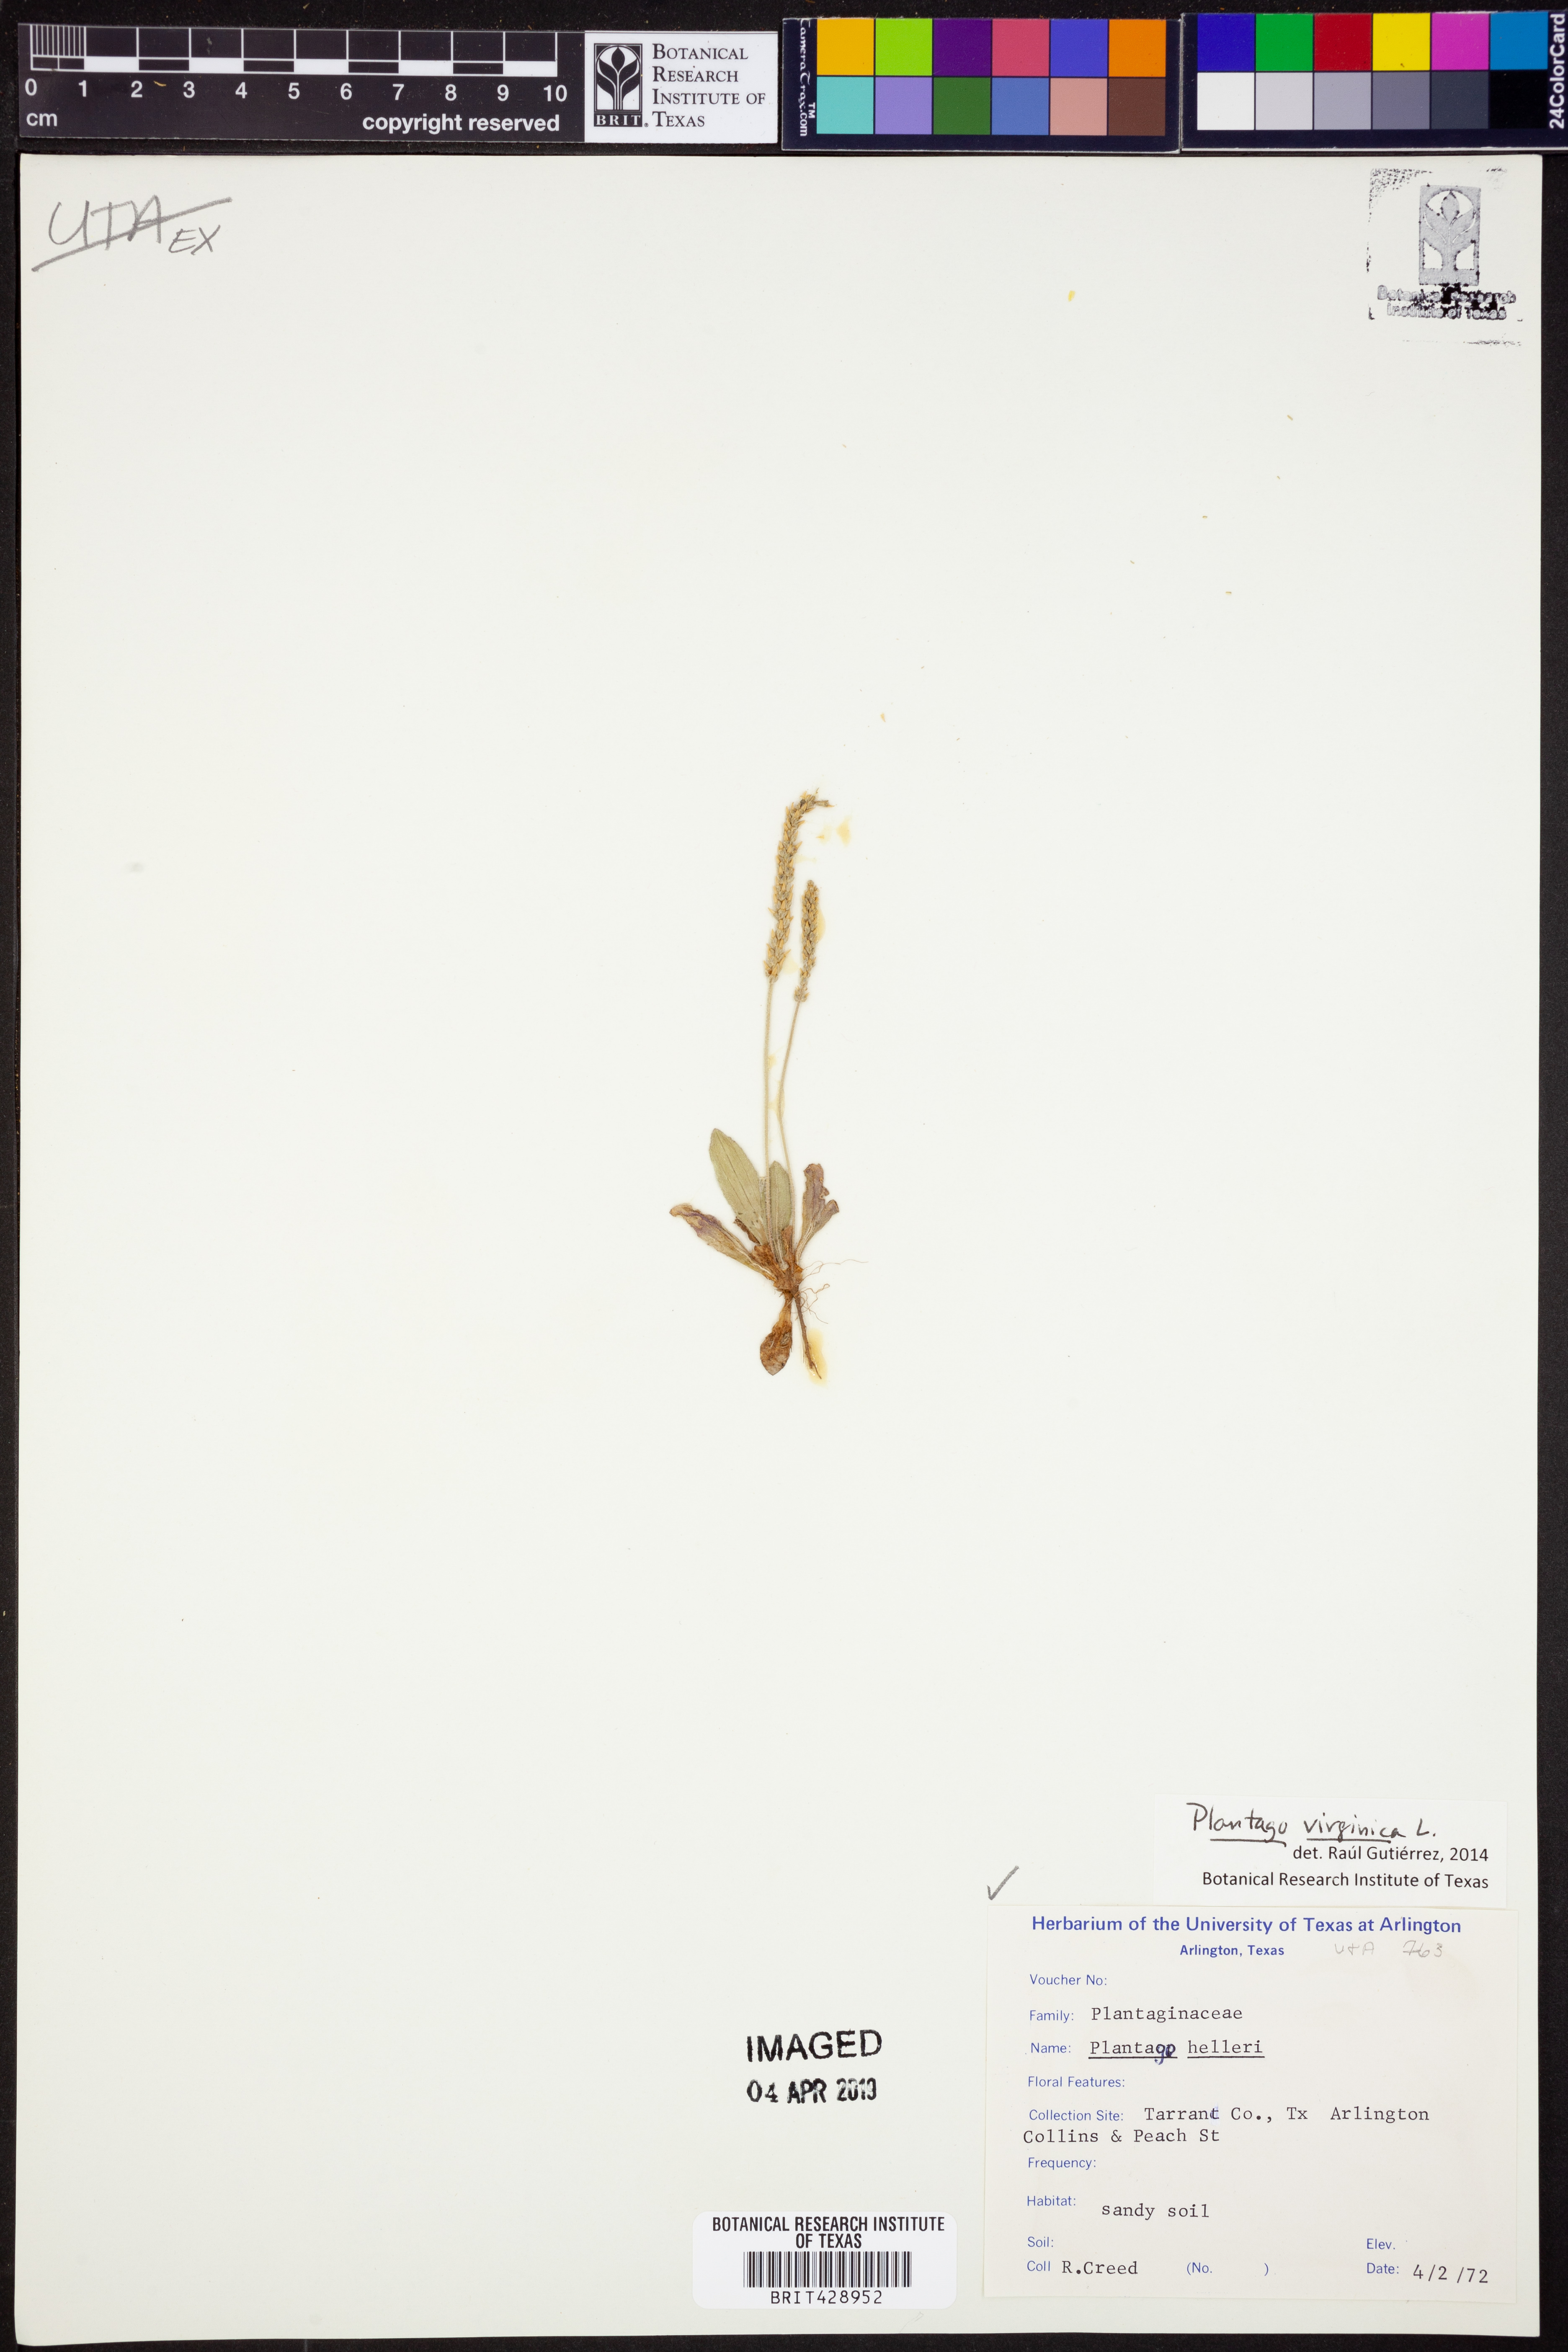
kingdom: Plantae
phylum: Tracheophyta
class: Magnoliopsida
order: Lamiales
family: Plantaginaceae
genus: Plantago
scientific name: Plantago virginica
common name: Hoary plantain
